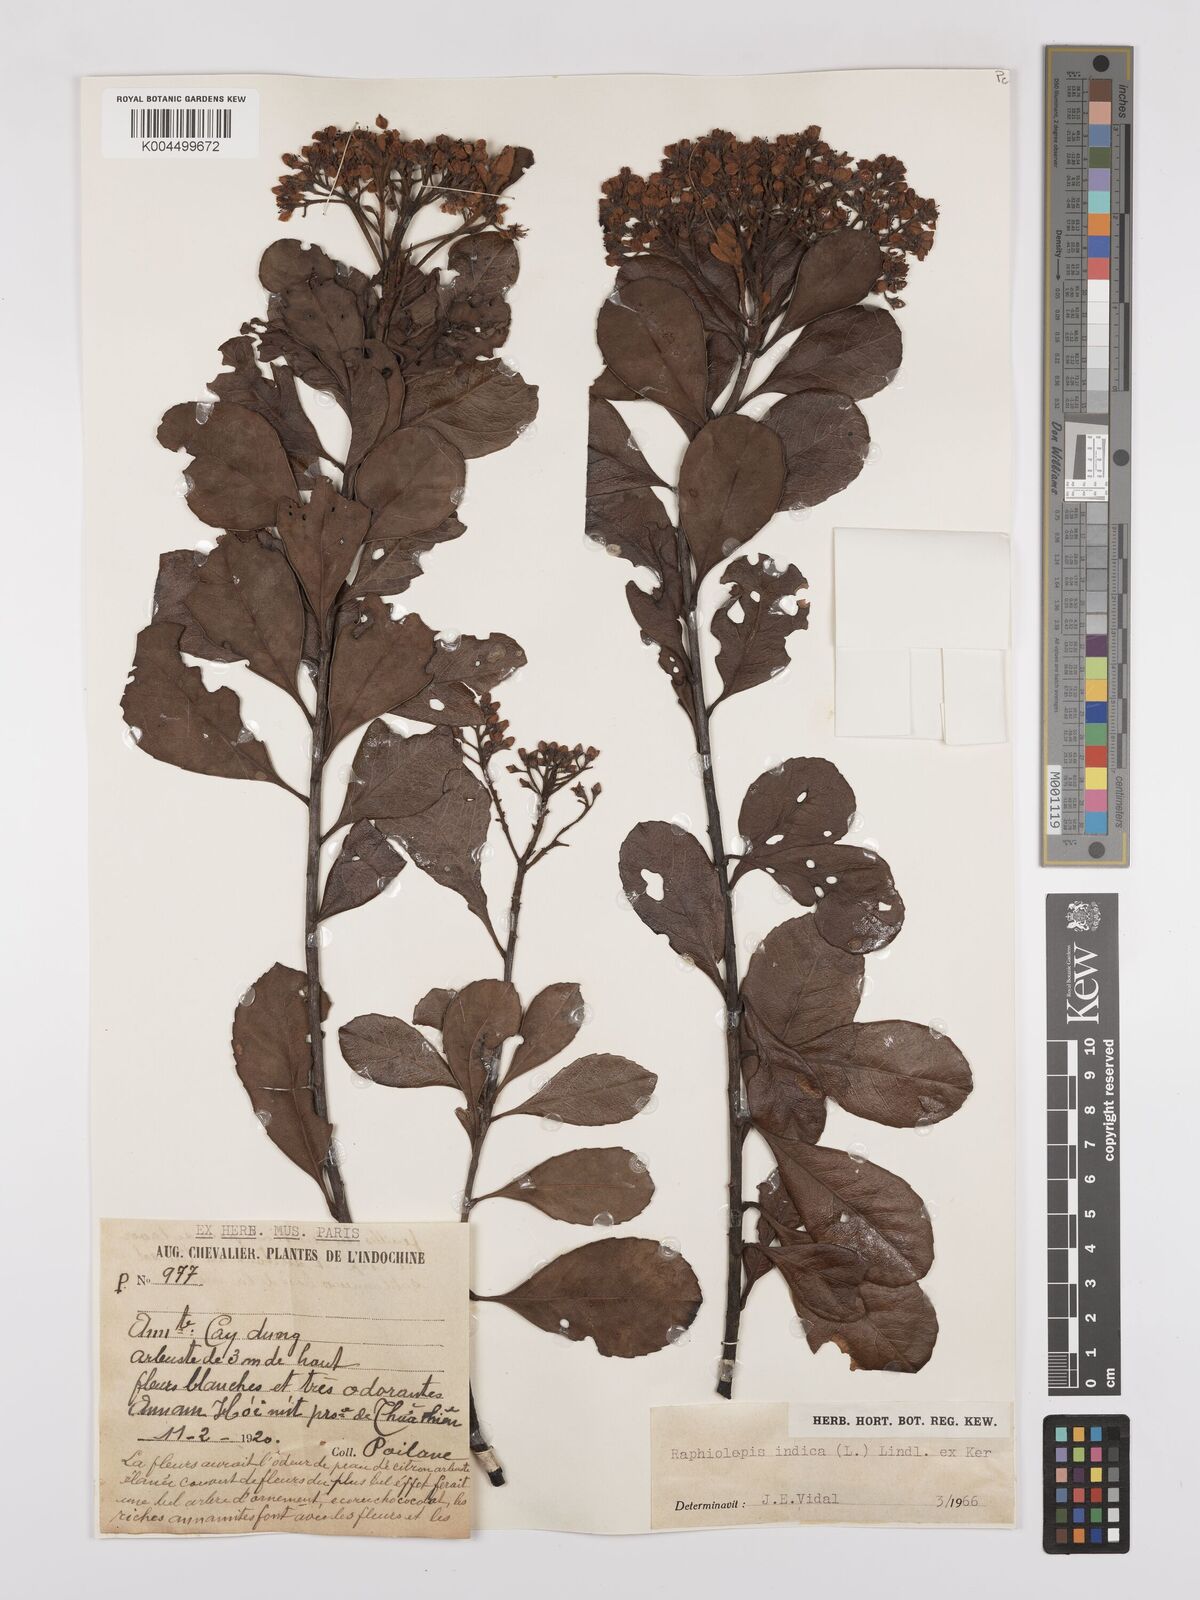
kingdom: Plantae
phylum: Tracheophyta
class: Magnoliopsida
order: Rosales
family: Rosaceae
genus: Rhaphiolepis
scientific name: Rhaphiolepis indica
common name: India-hawthorn
